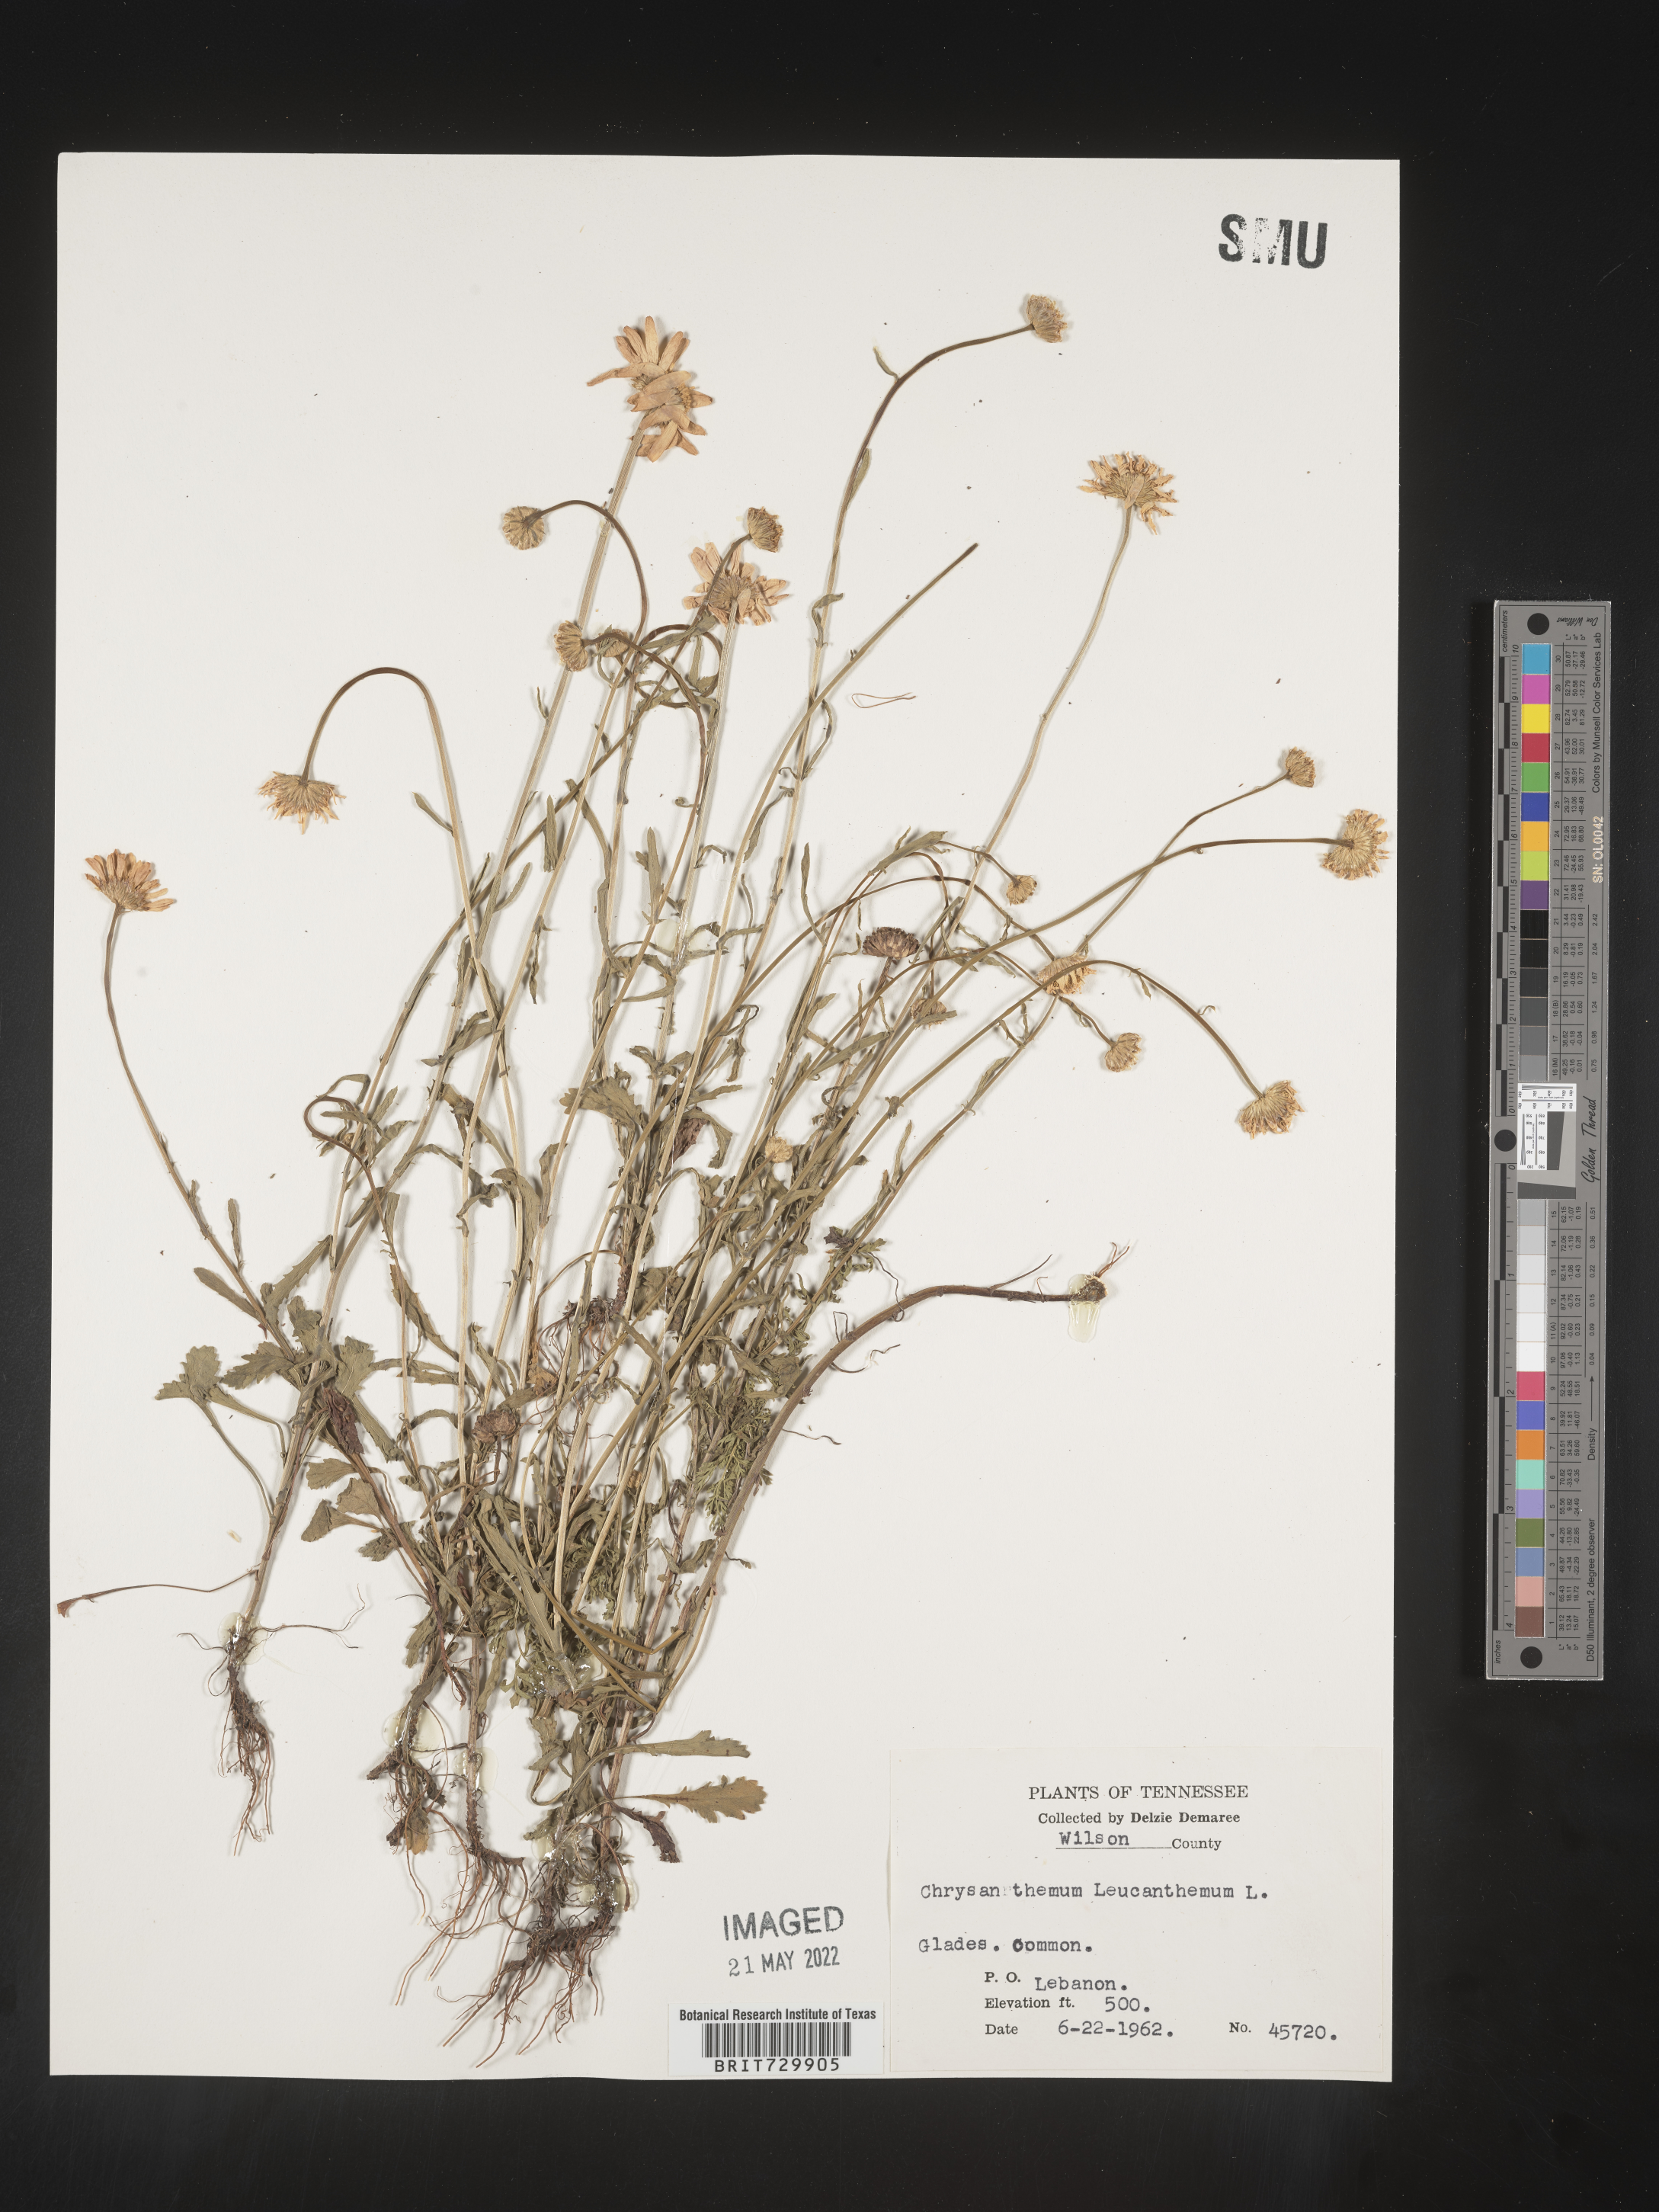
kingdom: Plantae
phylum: Tracheophyta
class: Magnoliopsida
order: Asterales
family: Asteraceae
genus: Leucanthemum
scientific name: Leucanthemum vulgare
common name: Oxeye daisy
